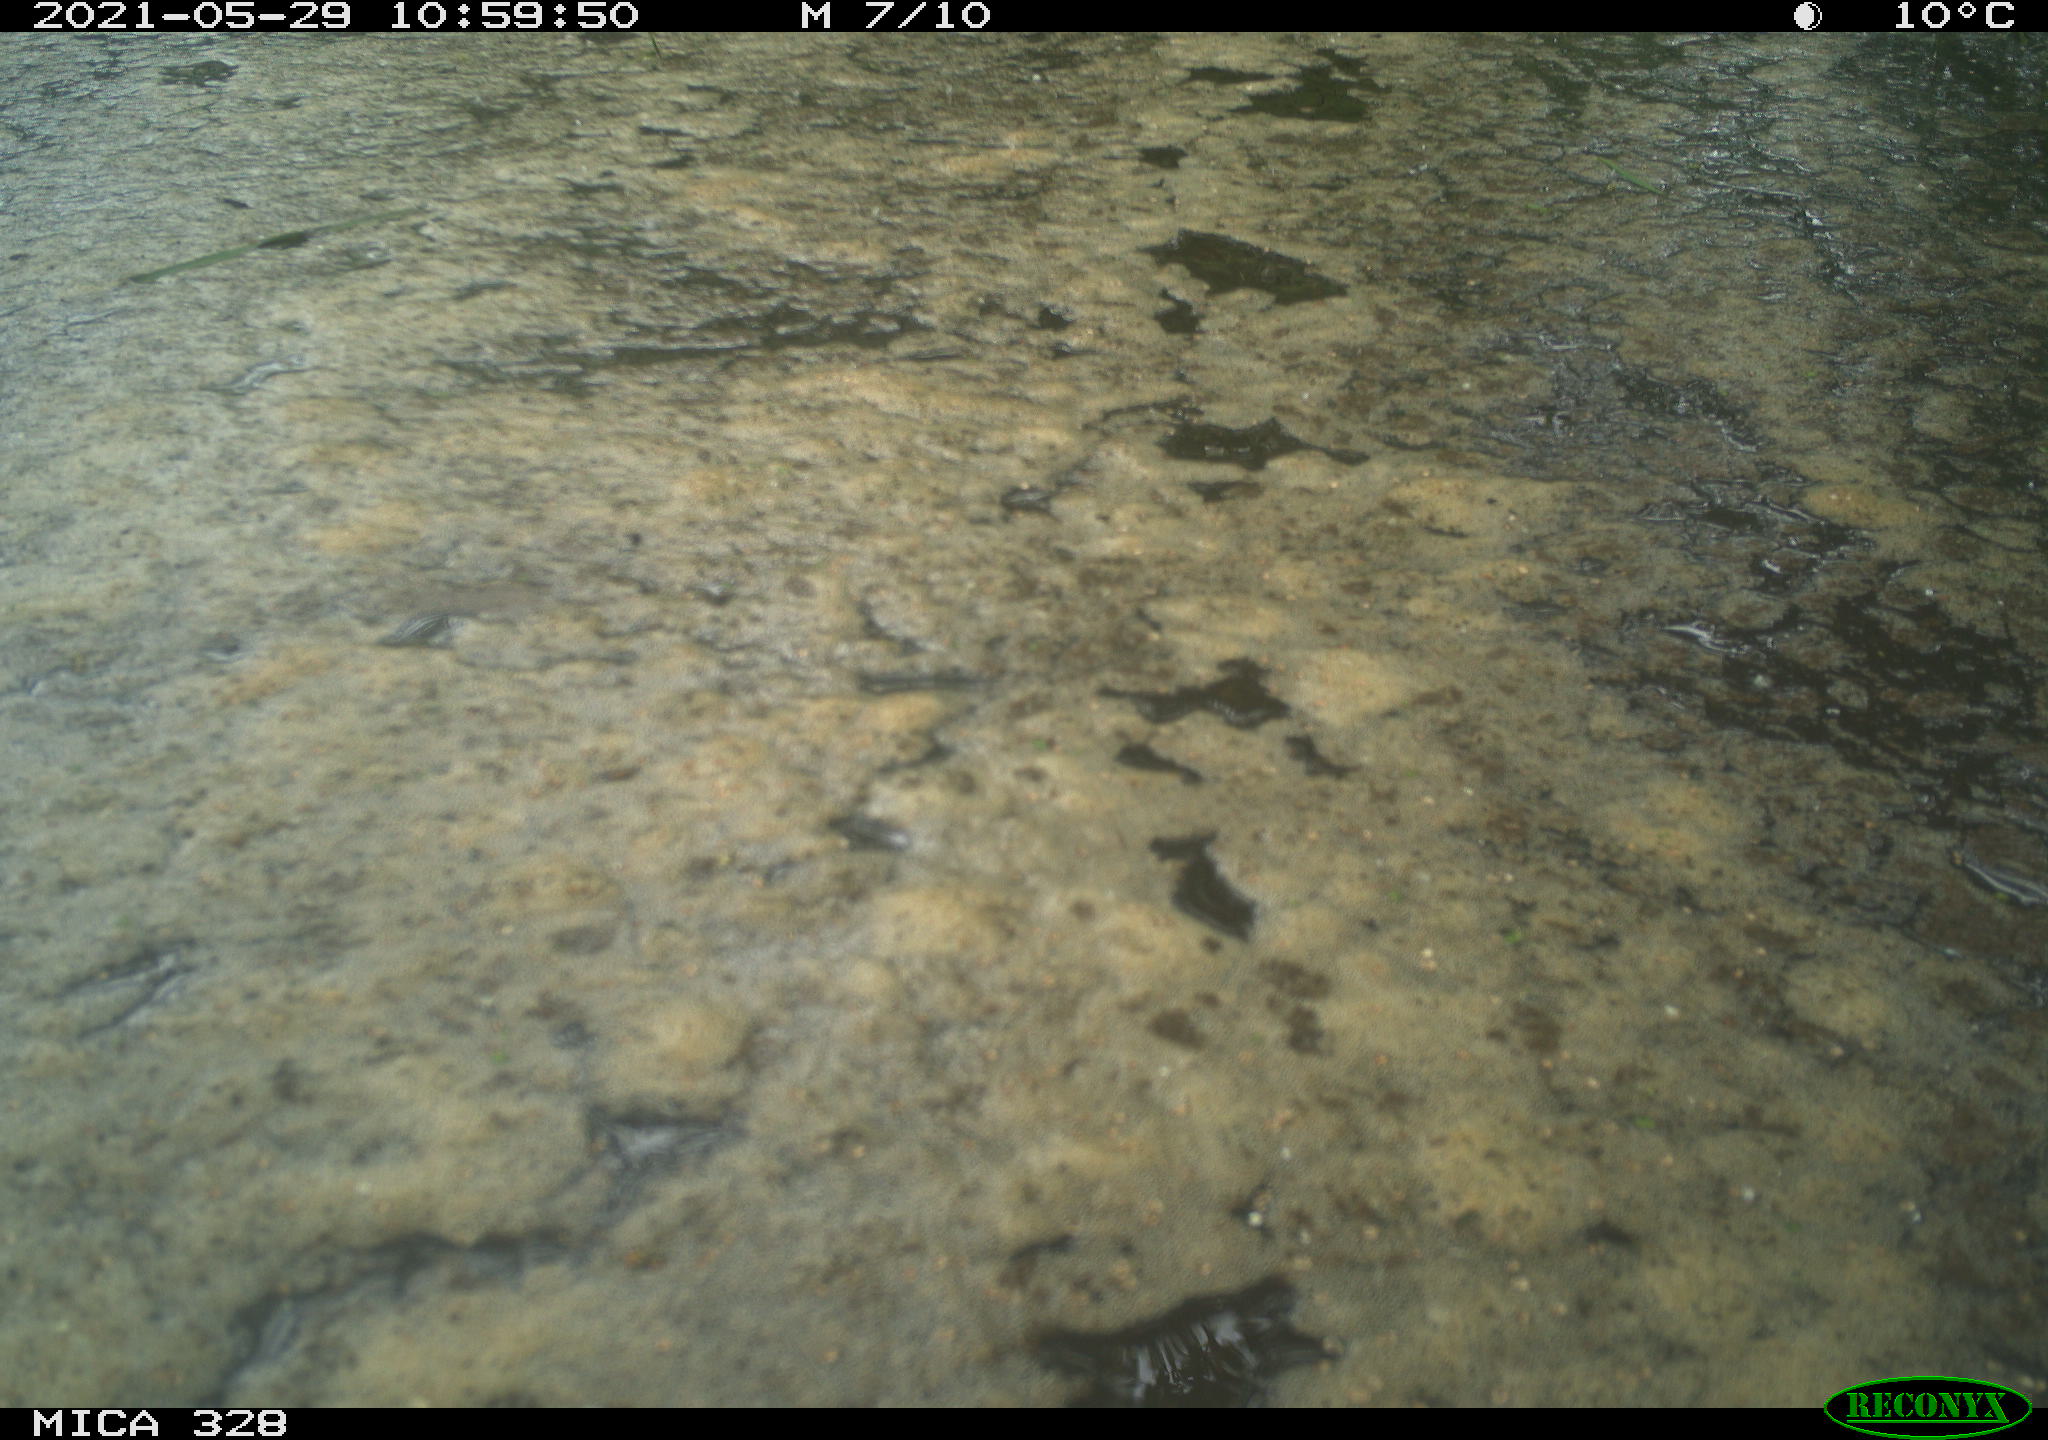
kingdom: Animalia
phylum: Chordata
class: Mammalia
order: Rodentia
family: Cricetidae
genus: Ondatra
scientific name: Ondatra zibethicus
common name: Muskrat
